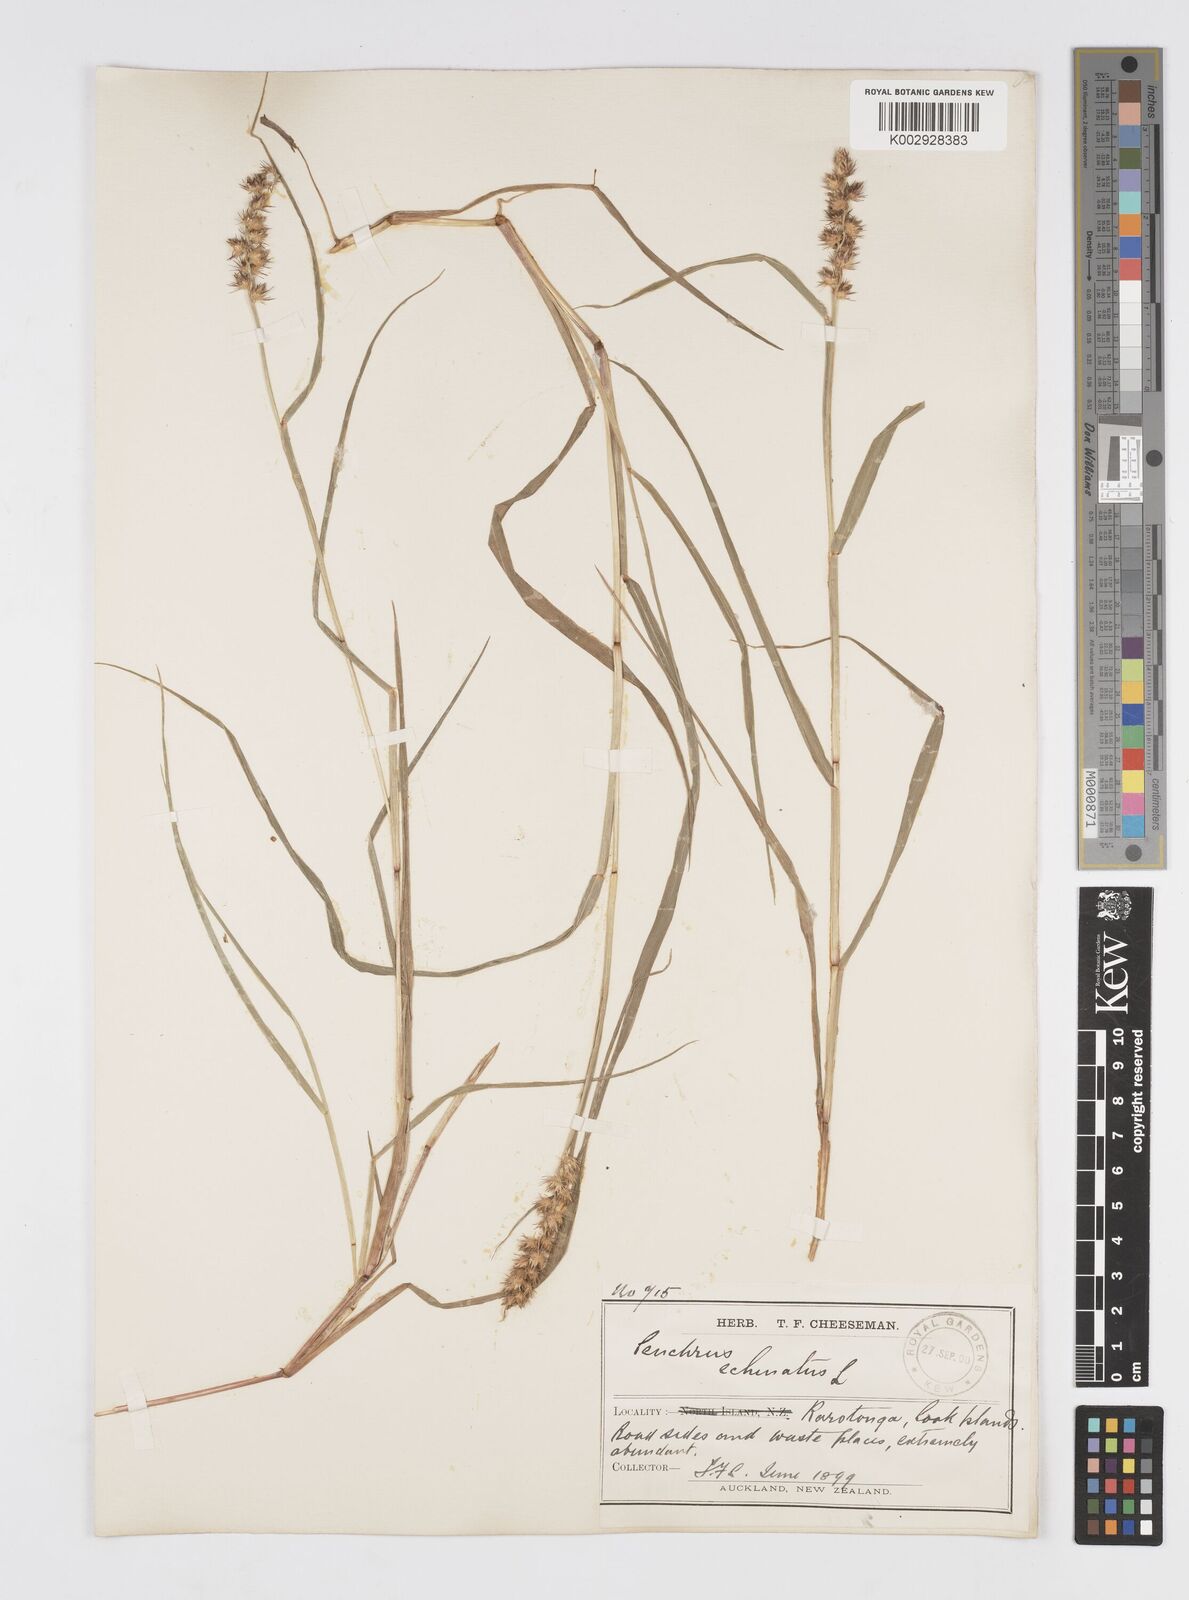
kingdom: Plantae
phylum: Tracheophyta
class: Liliopsida
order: Poales
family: Poaceae
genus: Cenchrus
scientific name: Cenchrus echinatus
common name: Southern sandbur
